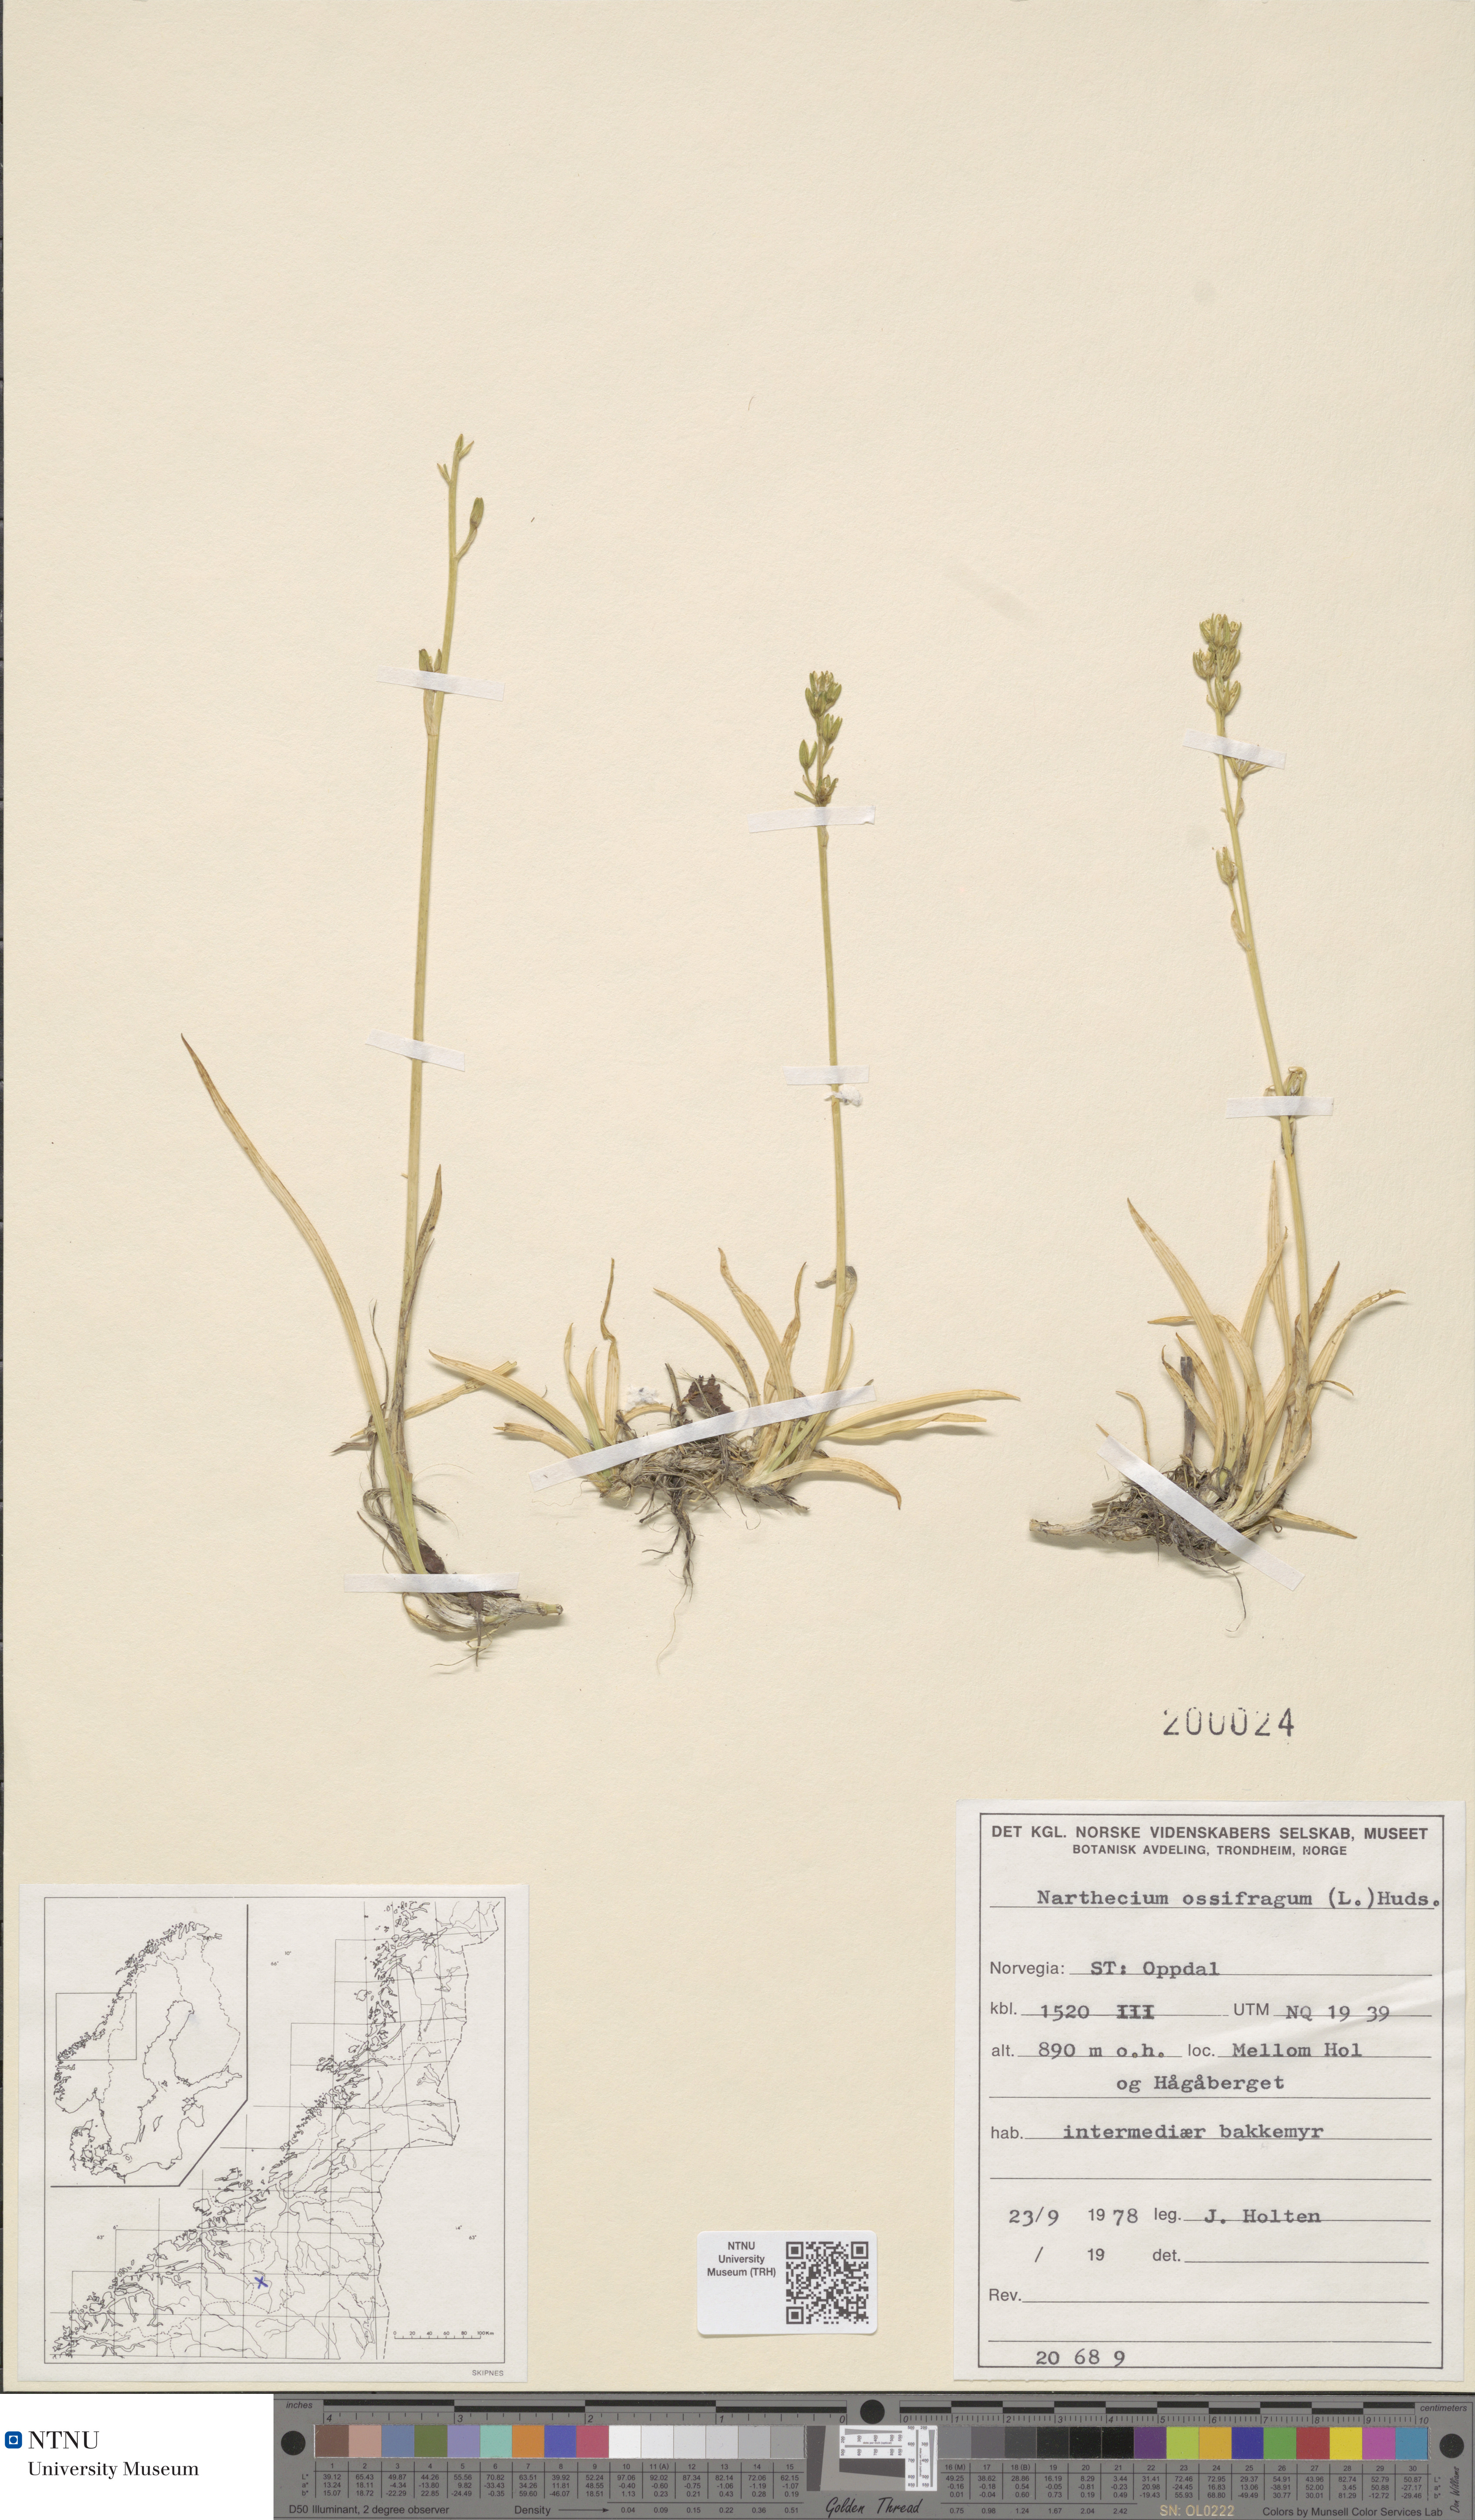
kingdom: Plantae
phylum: Tracheophyta
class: Liliopsida
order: Dioscoreales
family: Nartheciaceae
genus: Narthecium
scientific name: Narthecium ossifragum
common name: Bog asphodel
